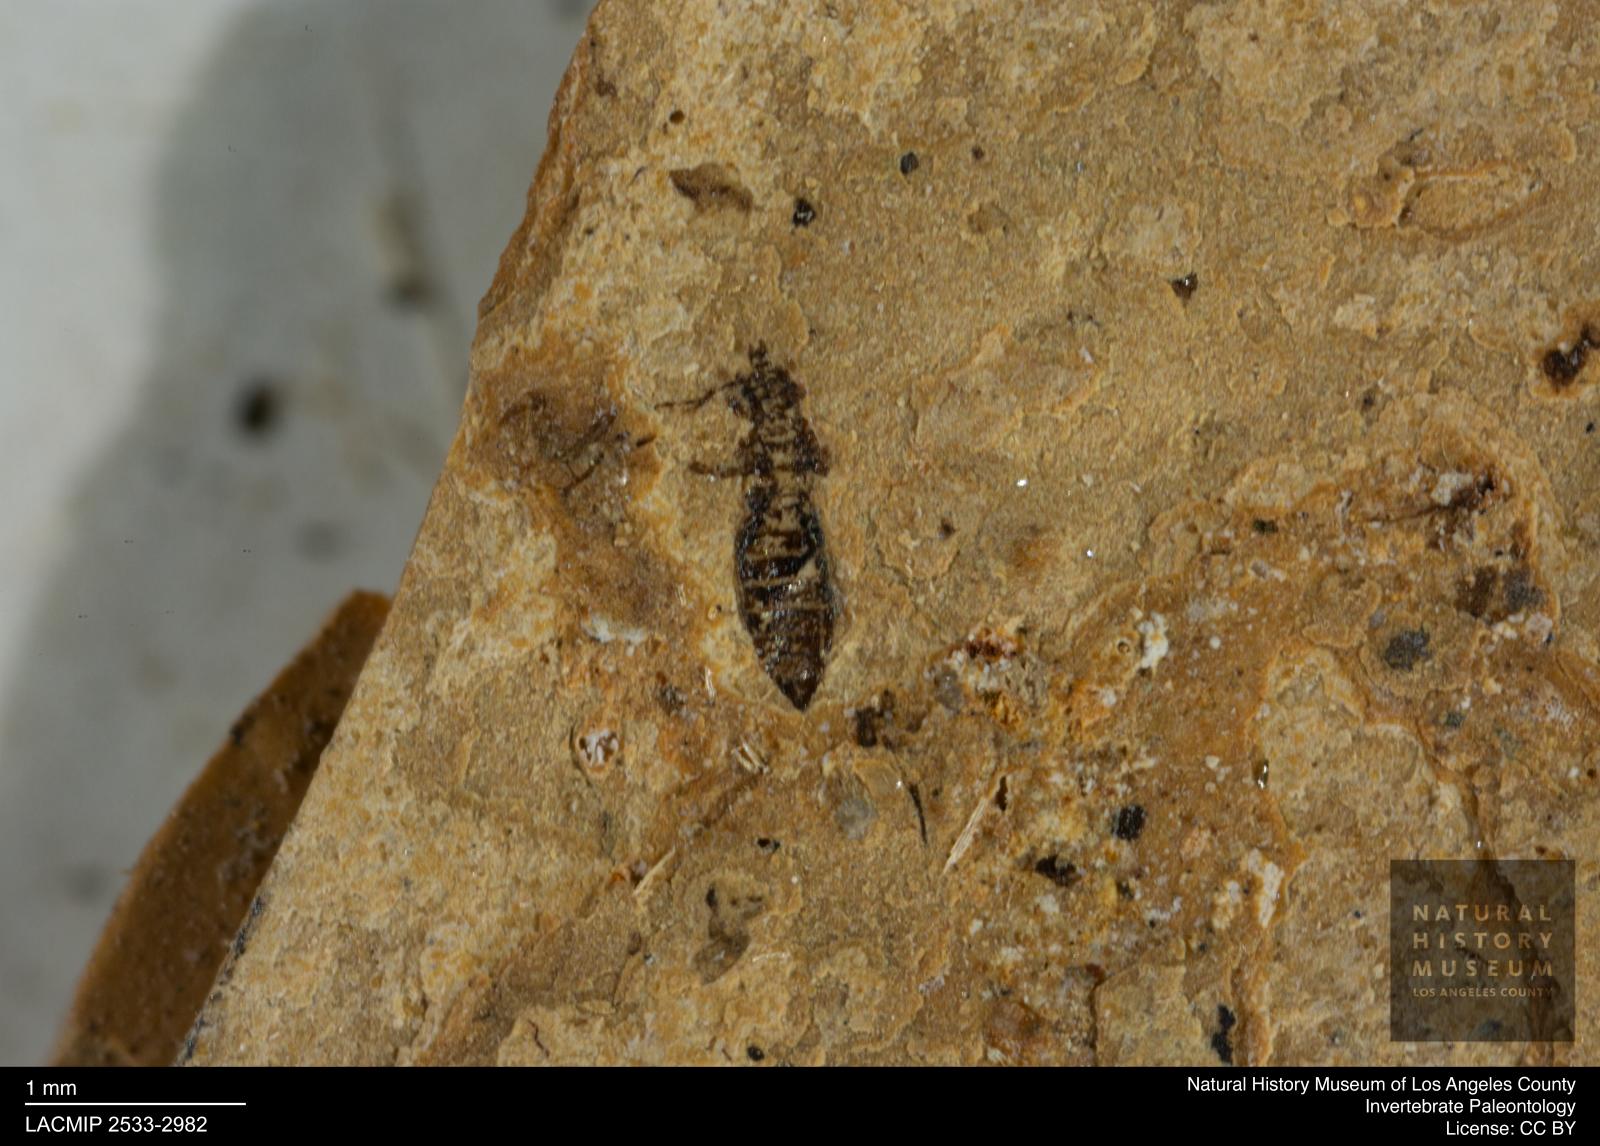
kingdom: Animalia
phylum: Arthropoda
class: Insecta
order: Thysanoptera
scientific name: Thysanoptera
